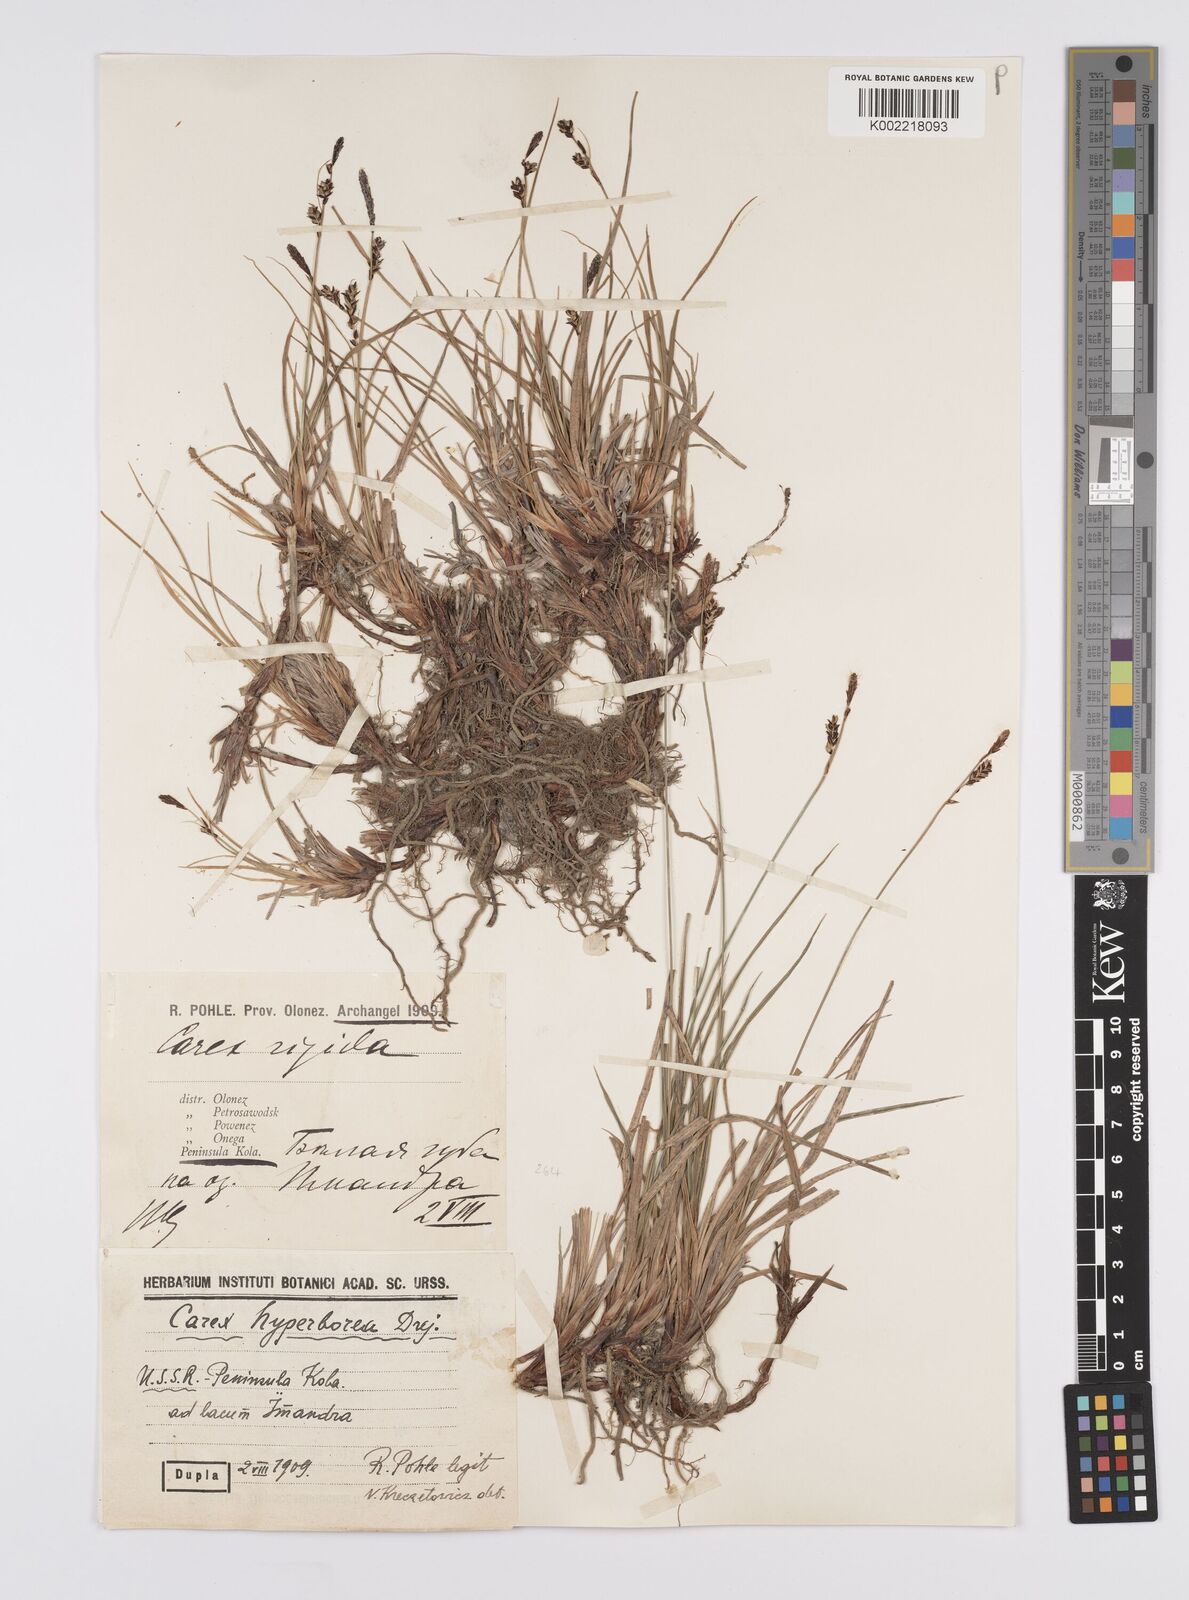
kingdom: Plantae
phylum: Tracheophyta
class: Liliopsida
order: Poales
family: Cyperaceae
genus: Carex
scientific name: Carex aquatilis
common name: Water sedge
